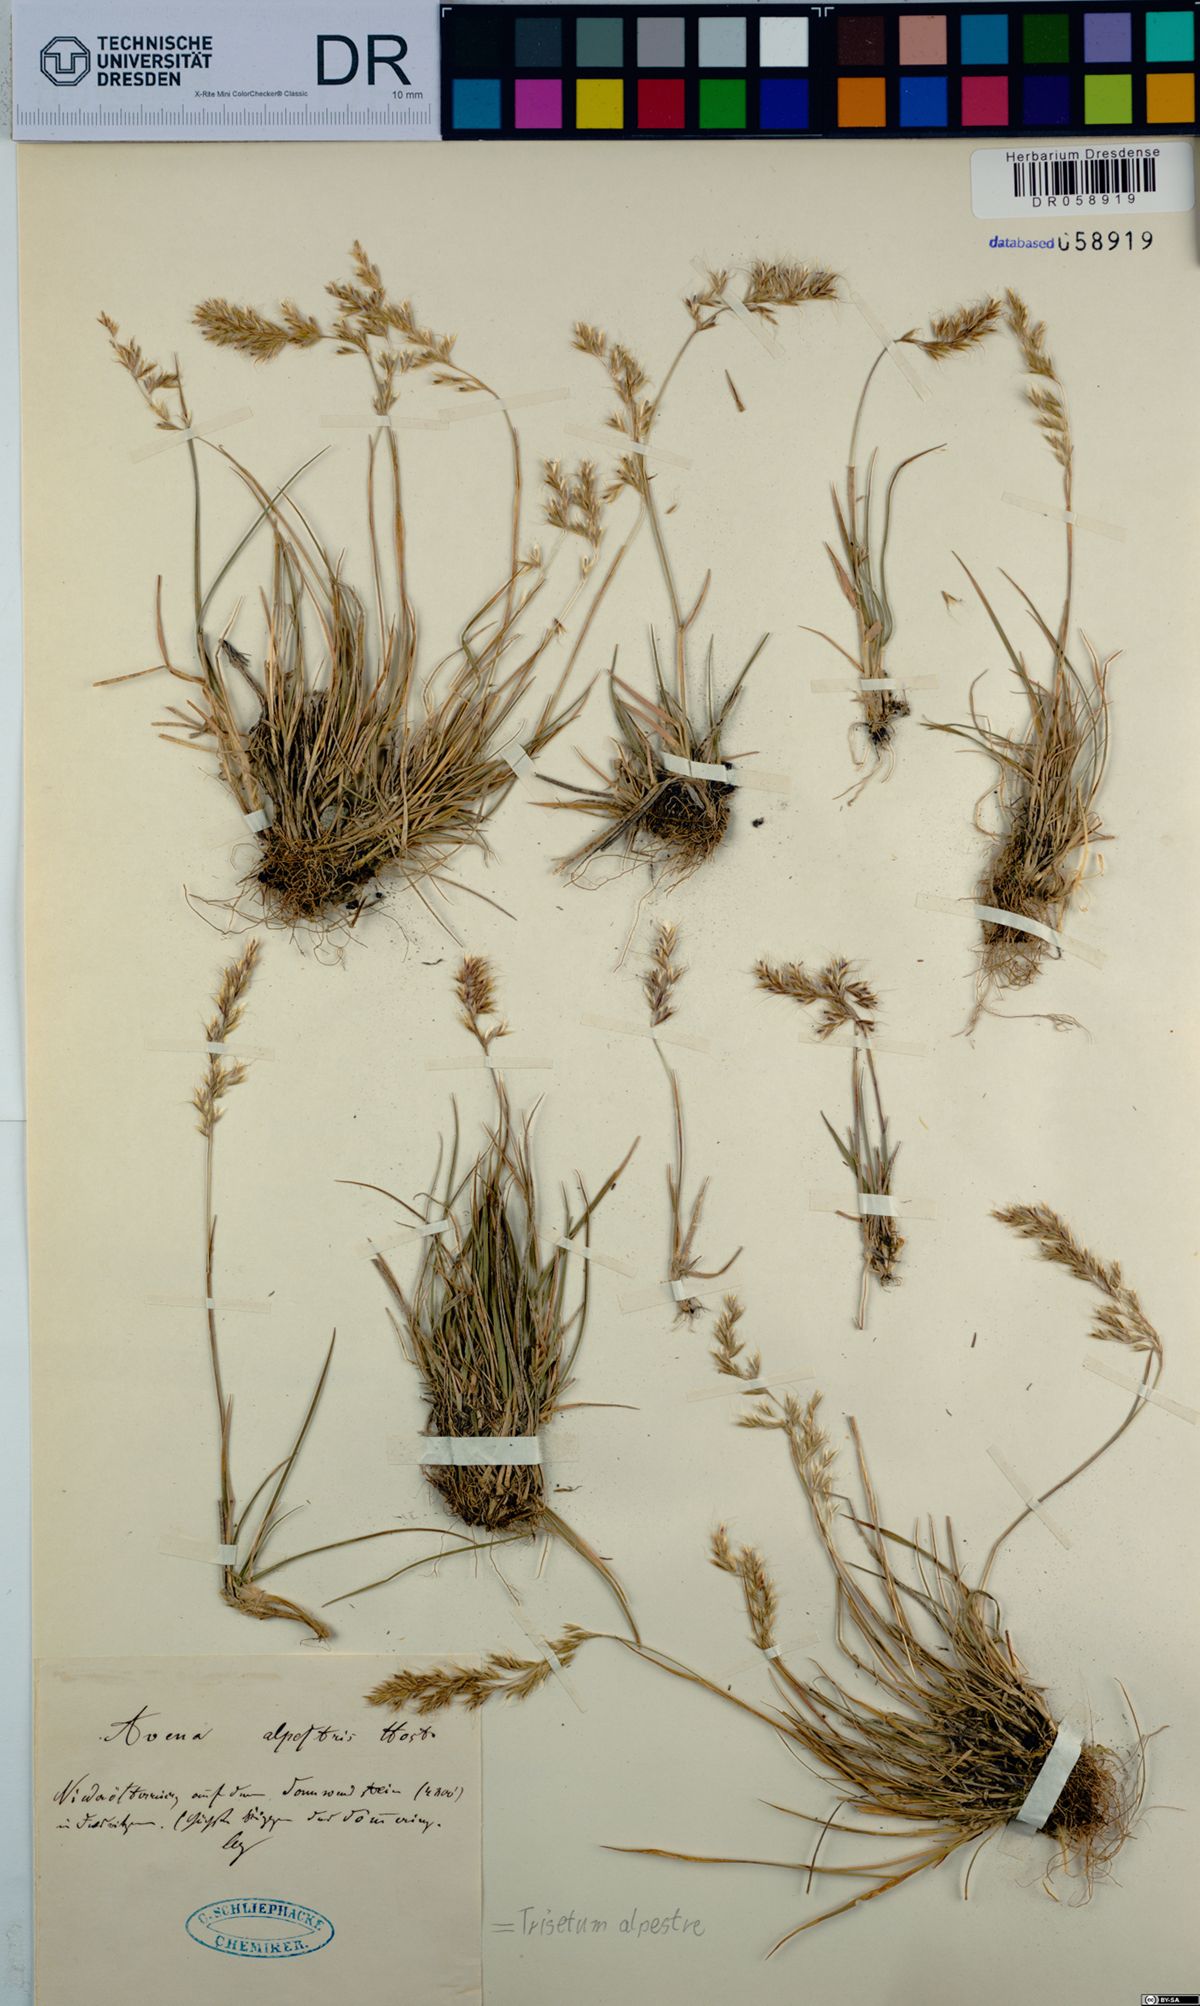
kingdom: Plantae
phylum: Tracheophyta
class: Liliopsida
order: Poales
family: Poaceae
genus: Trisetum
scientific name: Trisetum alpestre
